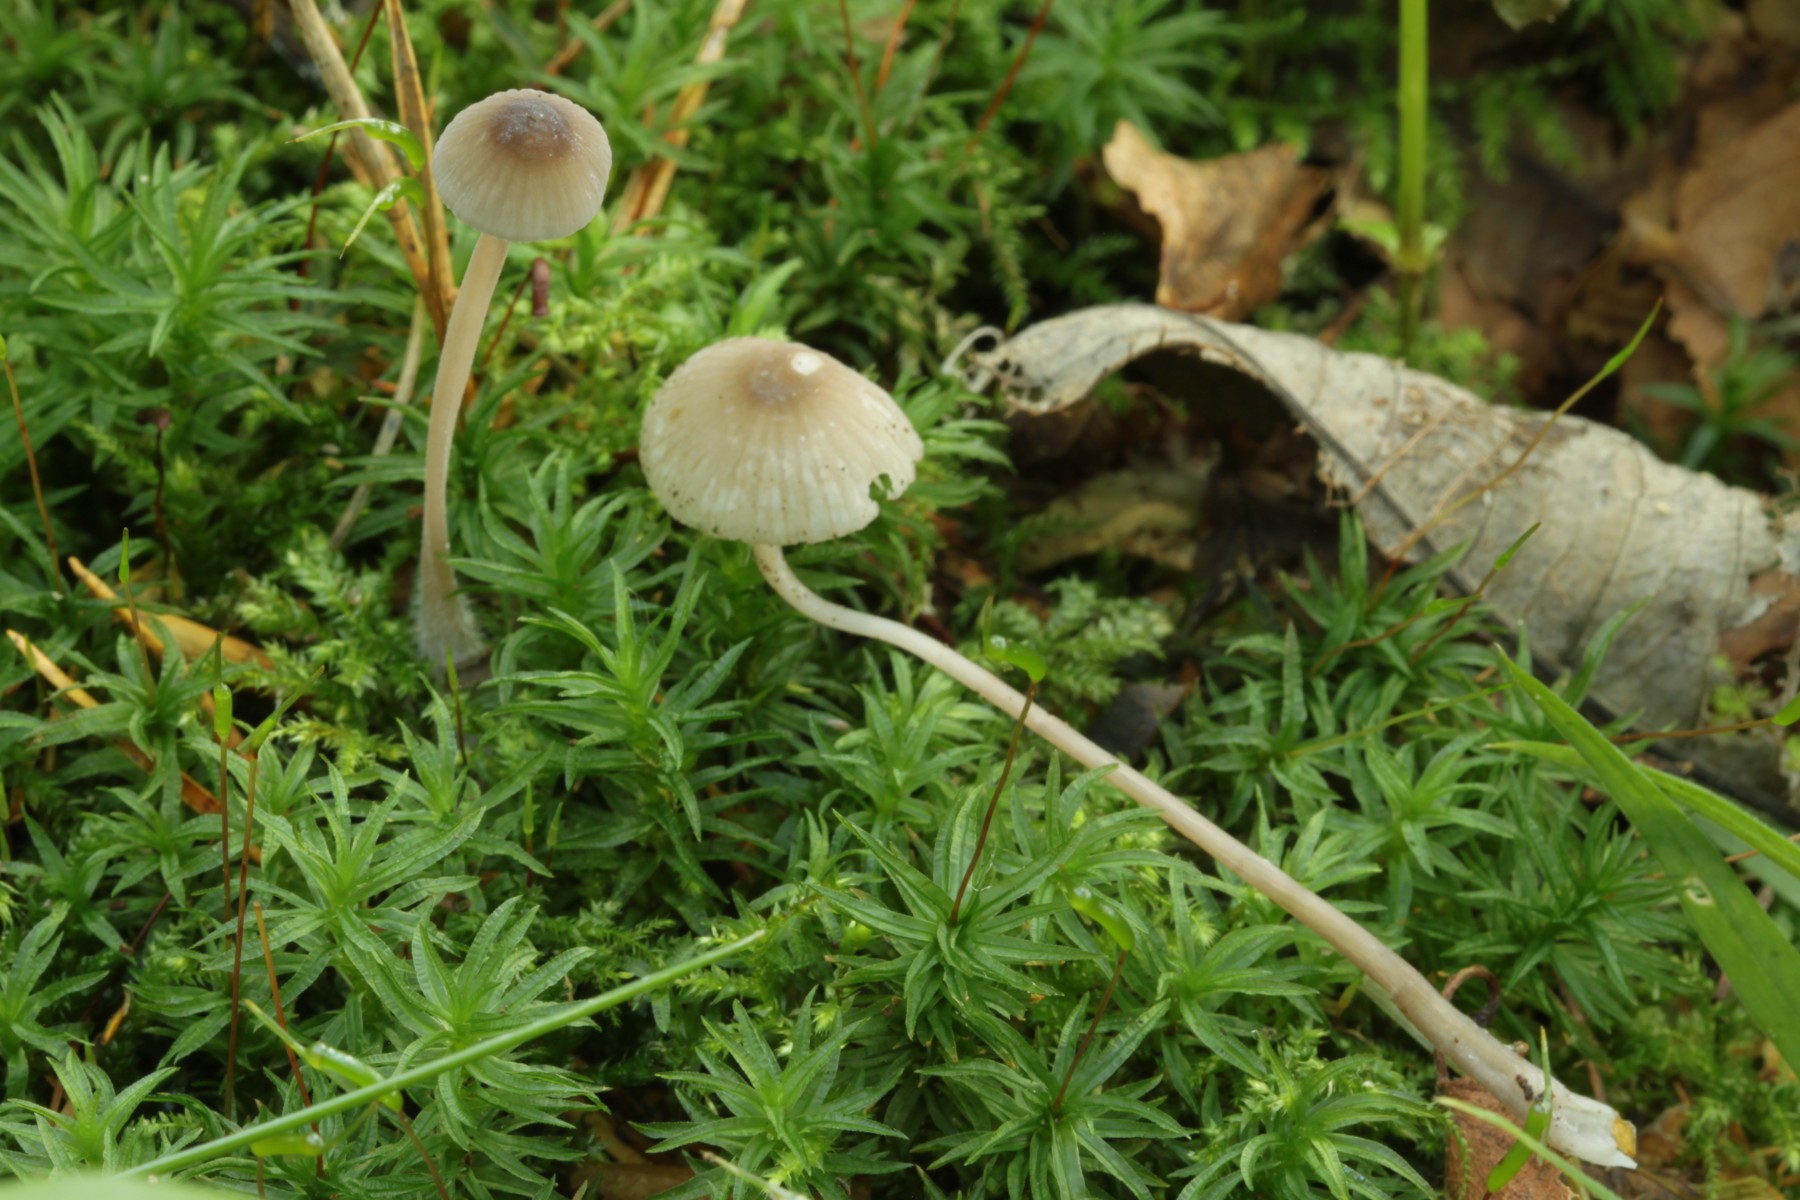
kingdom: Fungi
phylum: Basidiomycota
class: Agaricomycetes
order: Agaricales
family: Mycenaceae
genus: Mycena
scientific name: Mycena galopus
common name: hvidmælket huesvamp
